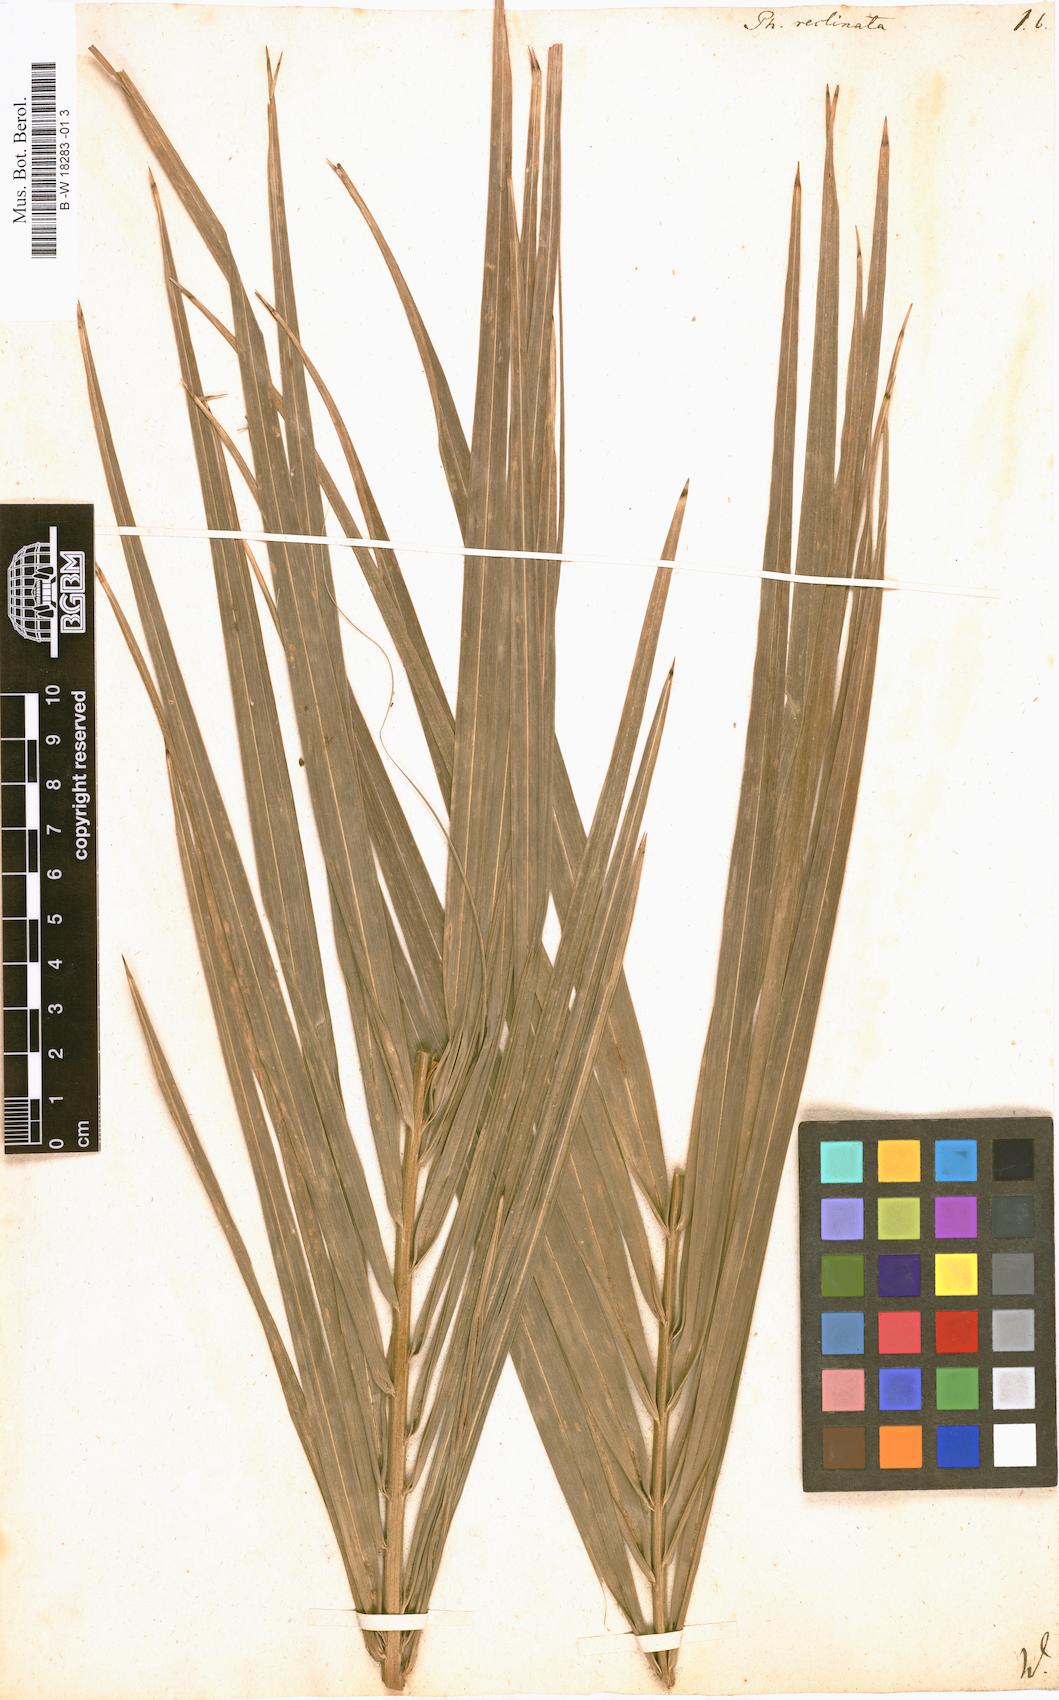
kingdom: Plantae
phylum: Tracheophyta
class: Liliopsida
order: Arecales
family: Arecaceae
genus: Phoenix
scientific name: Phoenix reclinata
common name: Senegal date palm
